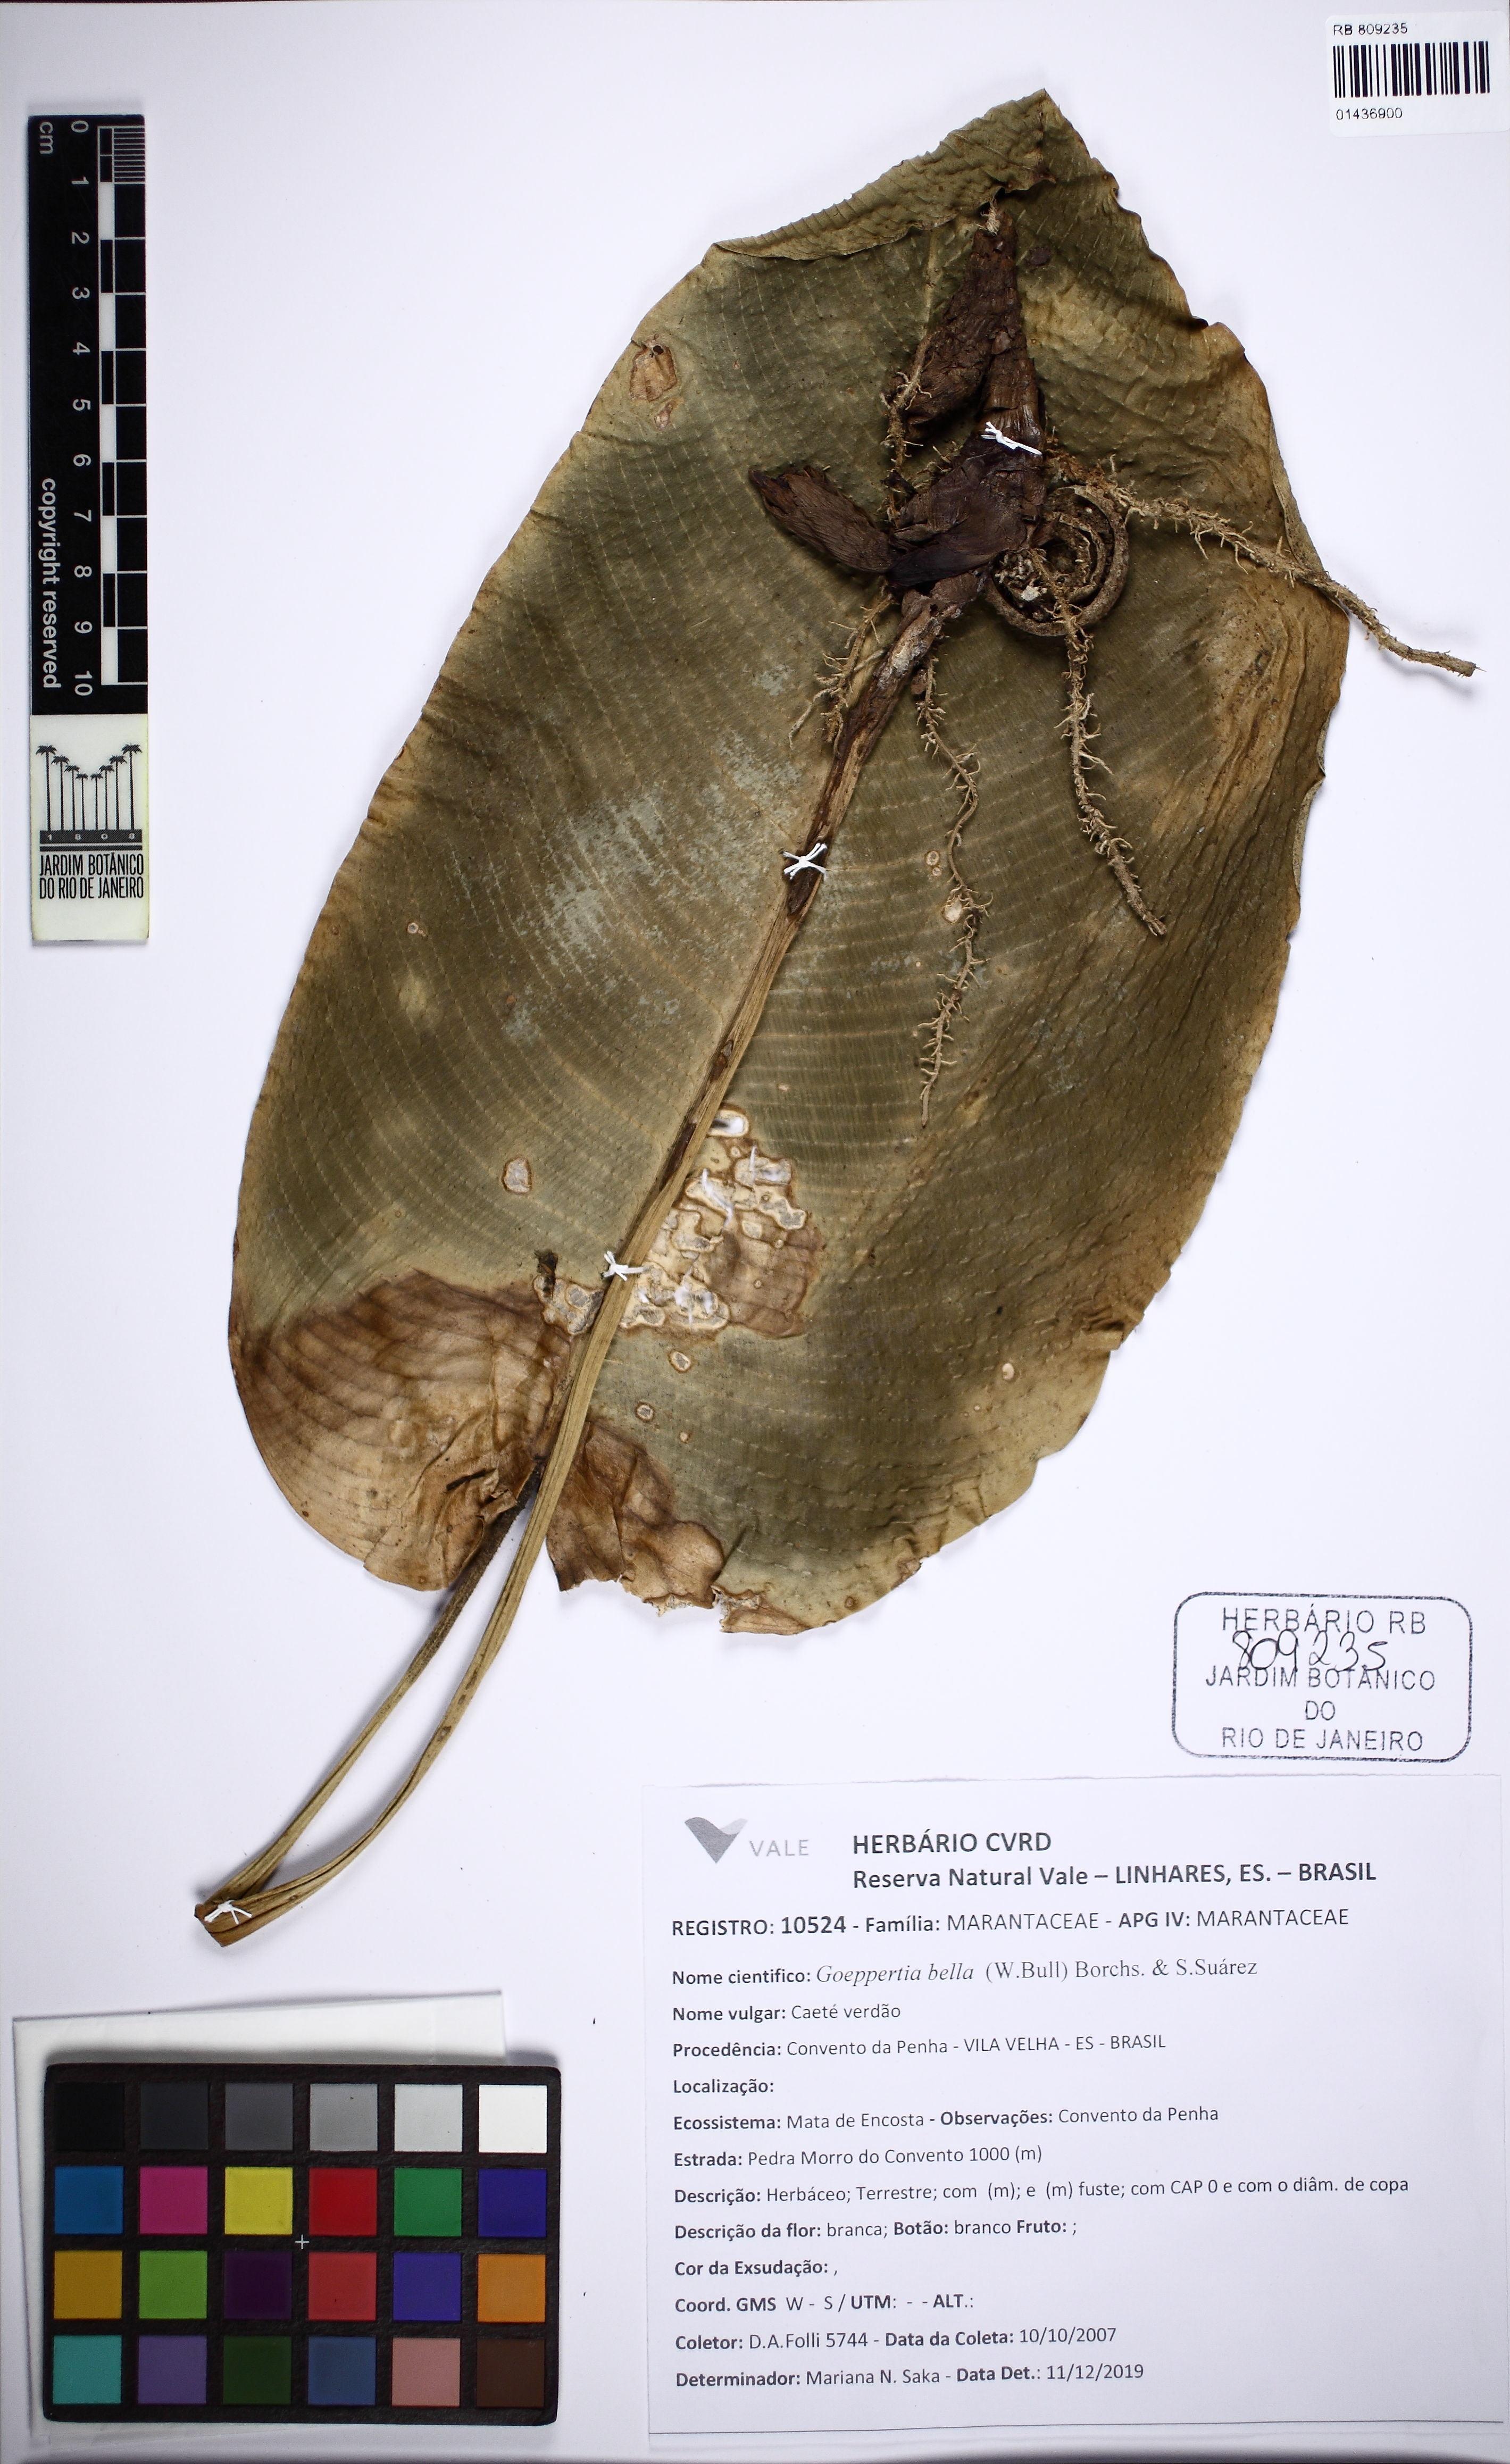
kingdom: Plantae
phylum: Tracheophyta
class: Liliopsida
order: Zingiberales
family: Marantaceae
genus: Goeppertia
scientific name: Goeppertia kegeljanii
